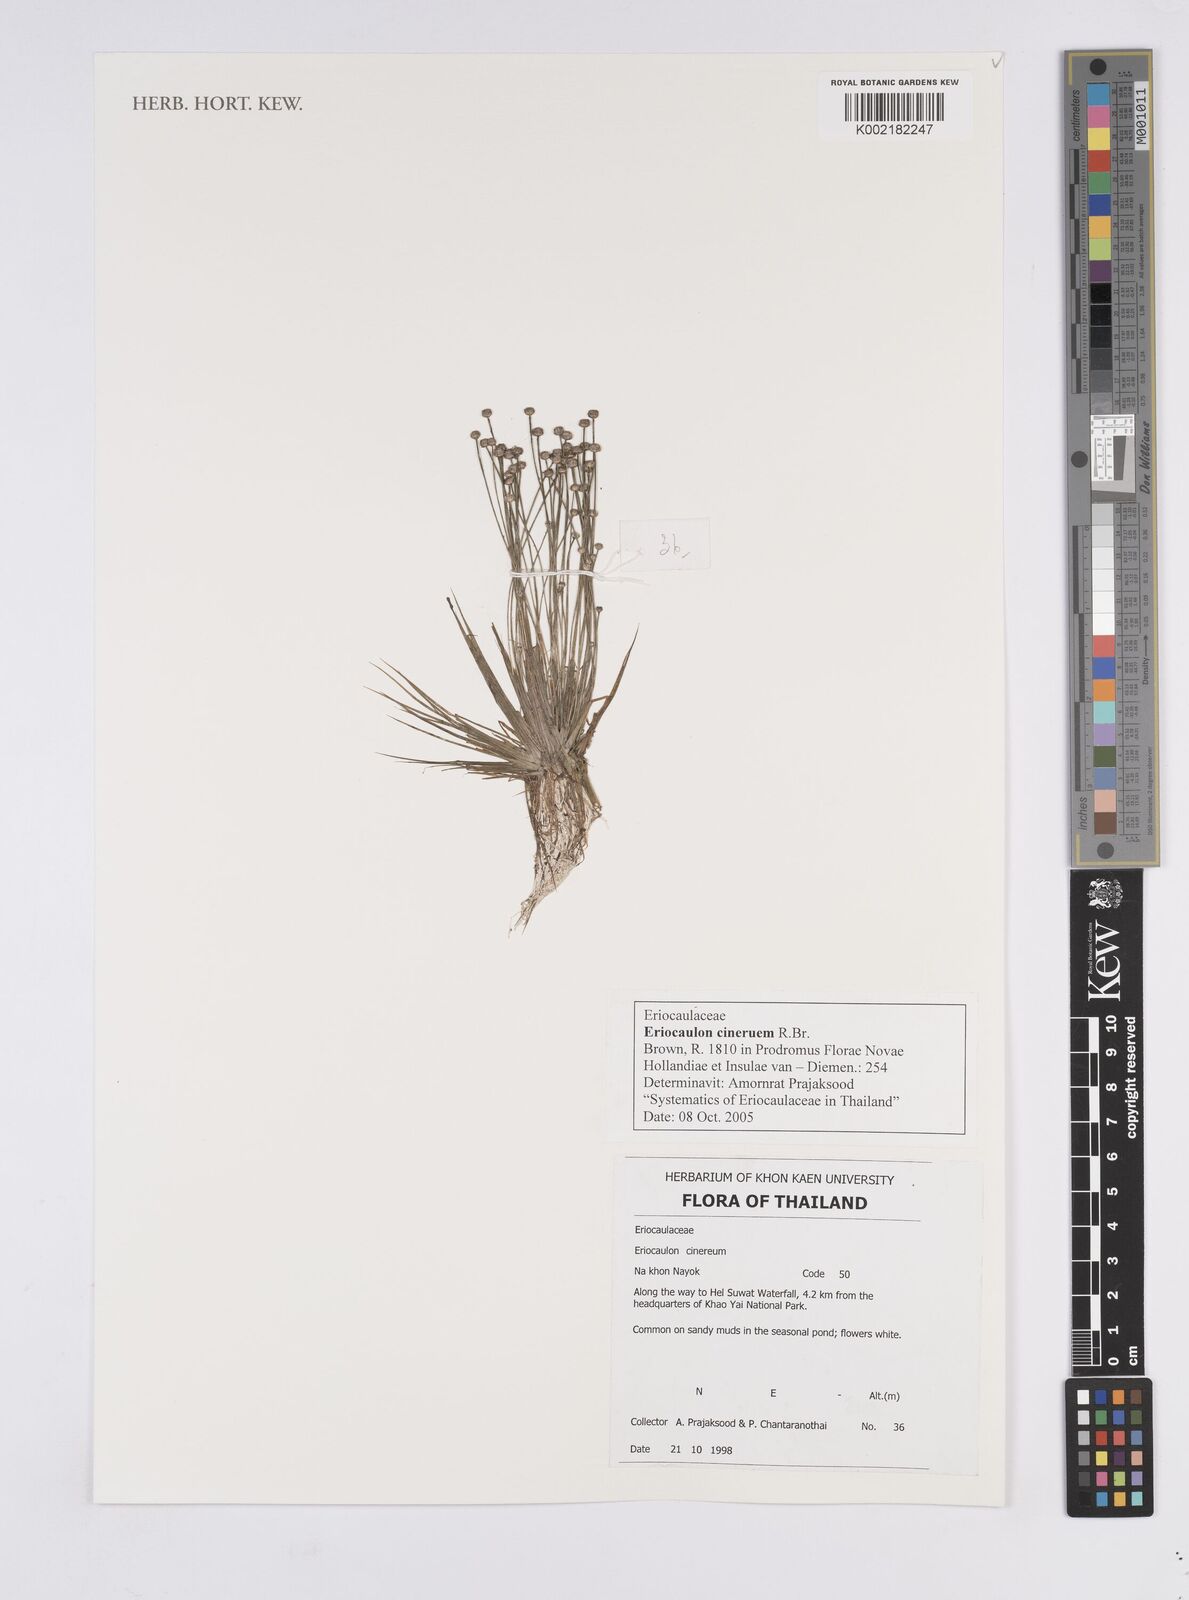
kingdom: Plantae
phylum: Tracheophyta
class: Liliopsida
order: Poales
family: Eriocaulaceae
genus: Eriocaulon
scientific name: Eriocaulon cinereum
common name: Ashy pipewort
